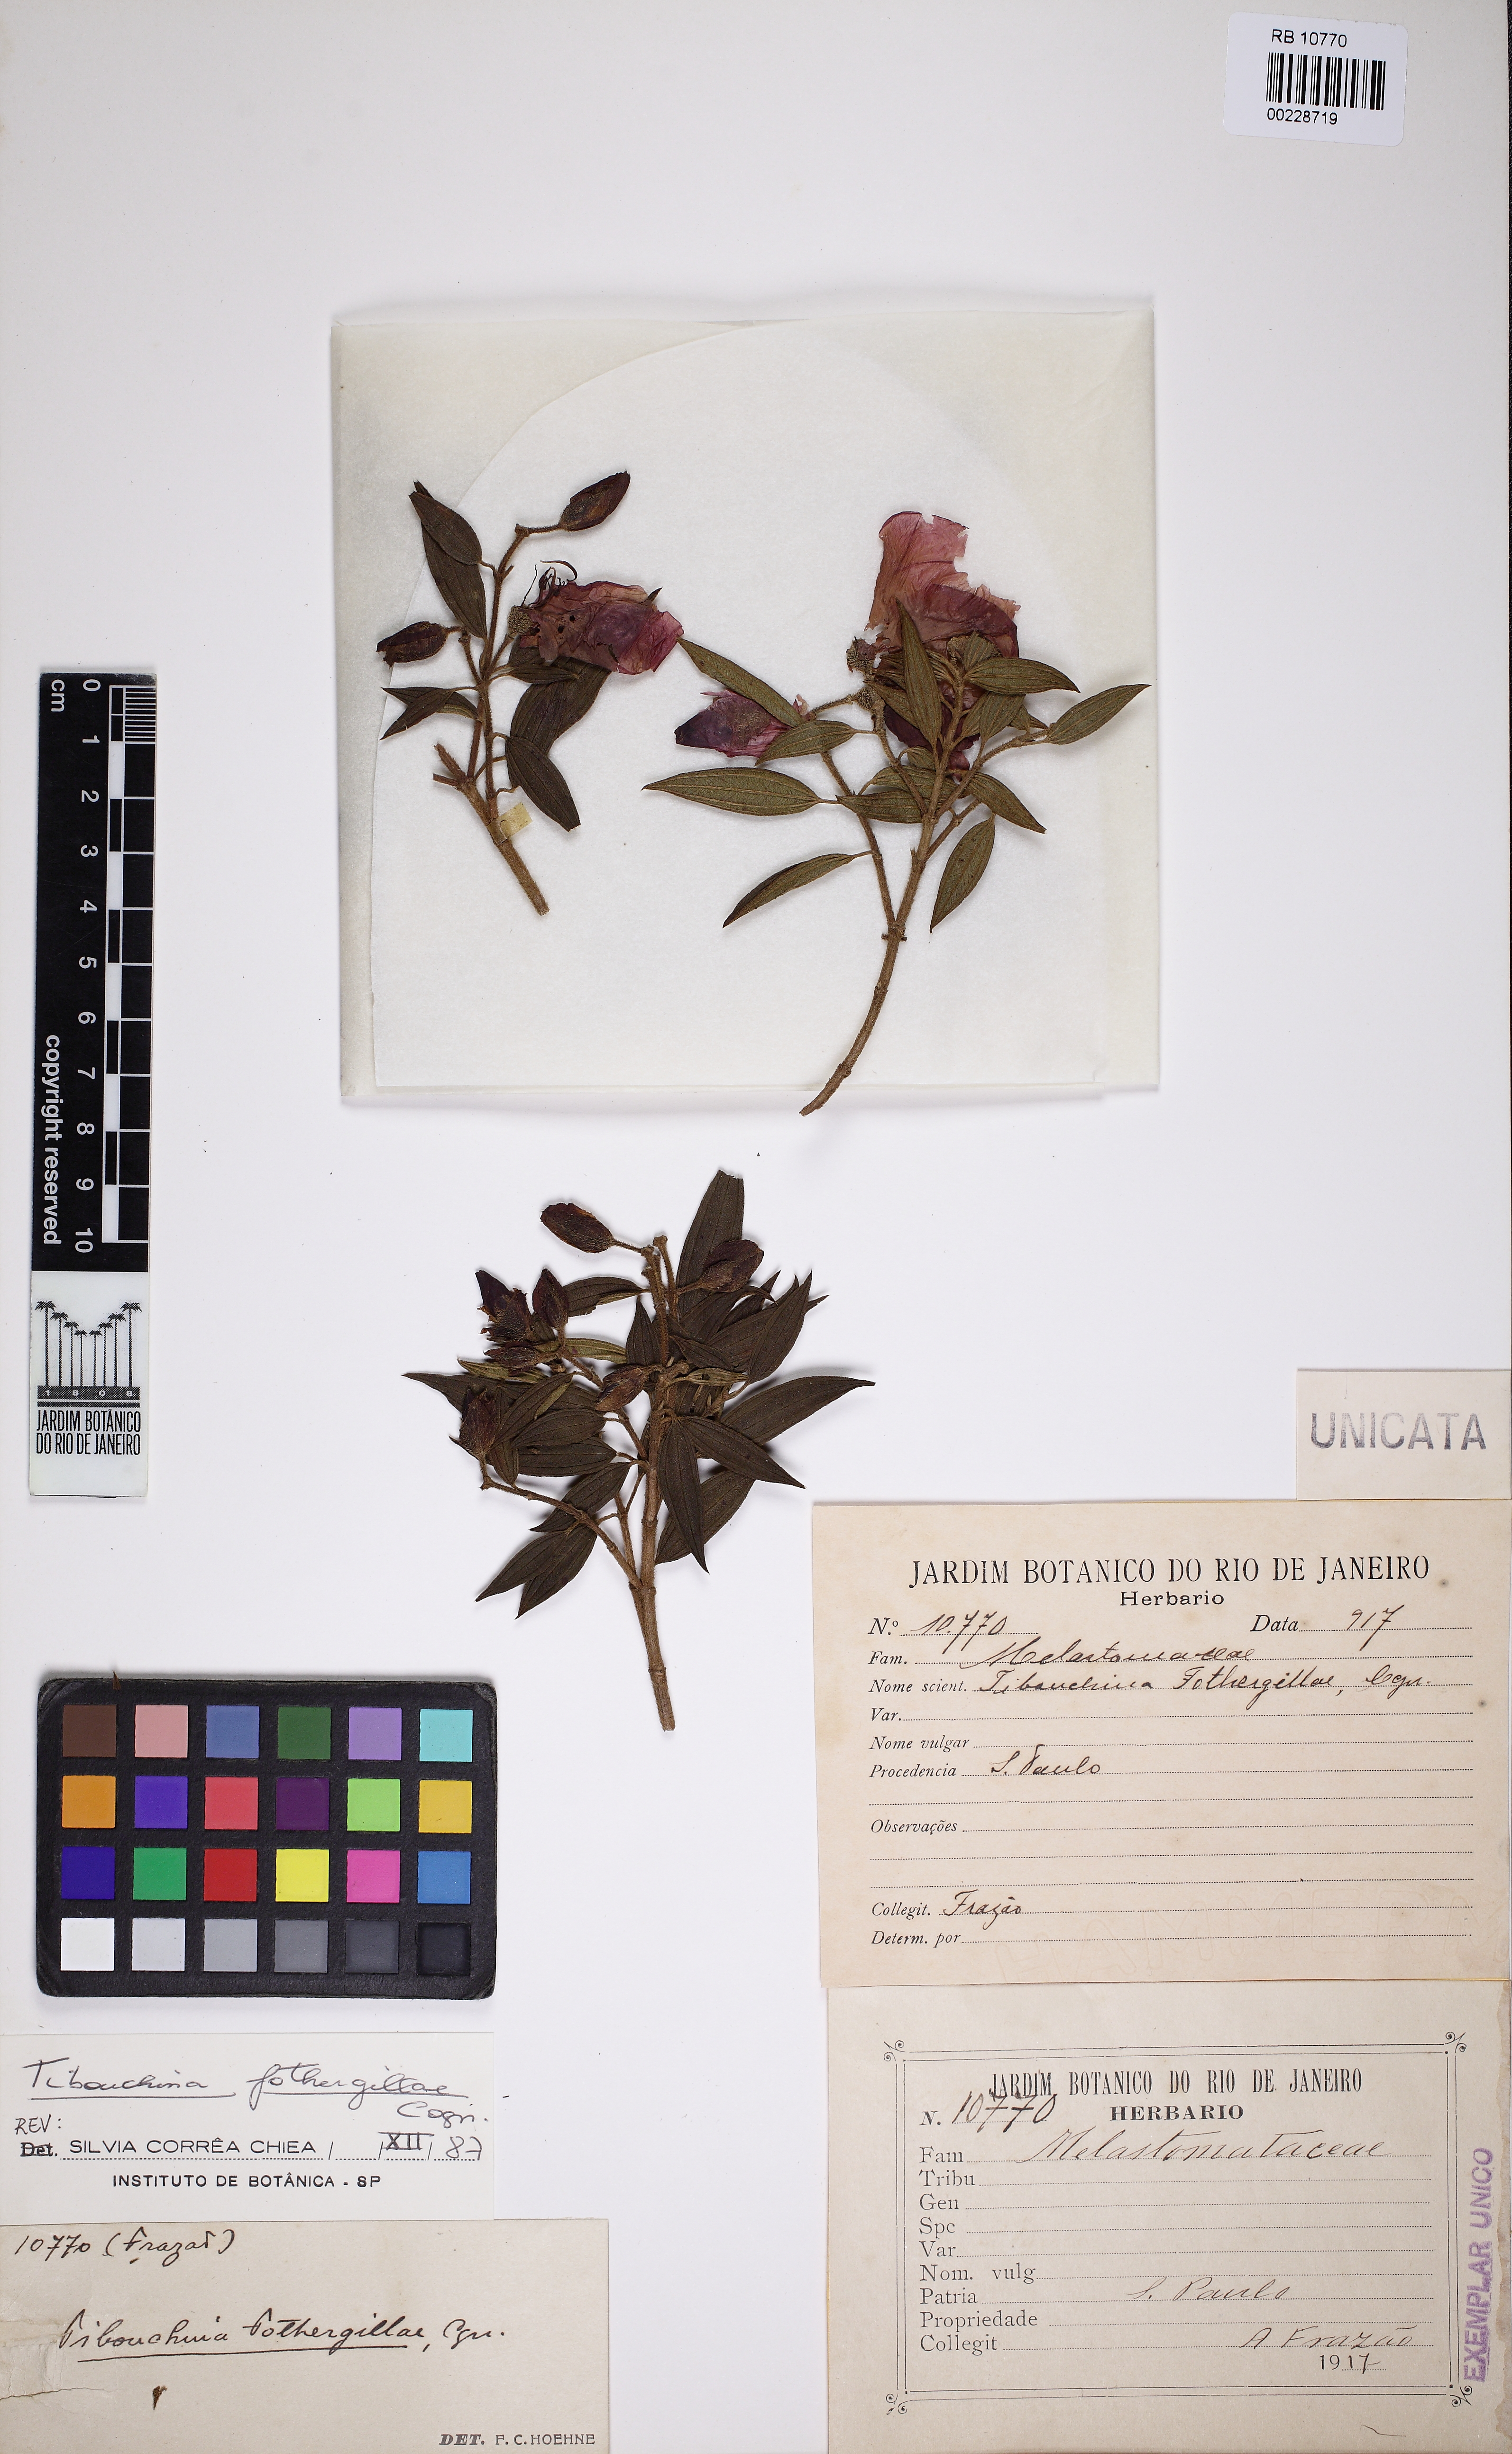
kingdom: Plantae
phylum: Tracheophyta
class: Magnoliopsida
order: Myrtales
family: Melastomataceae
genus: Pleroma
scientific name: Pleroma fothergillae
